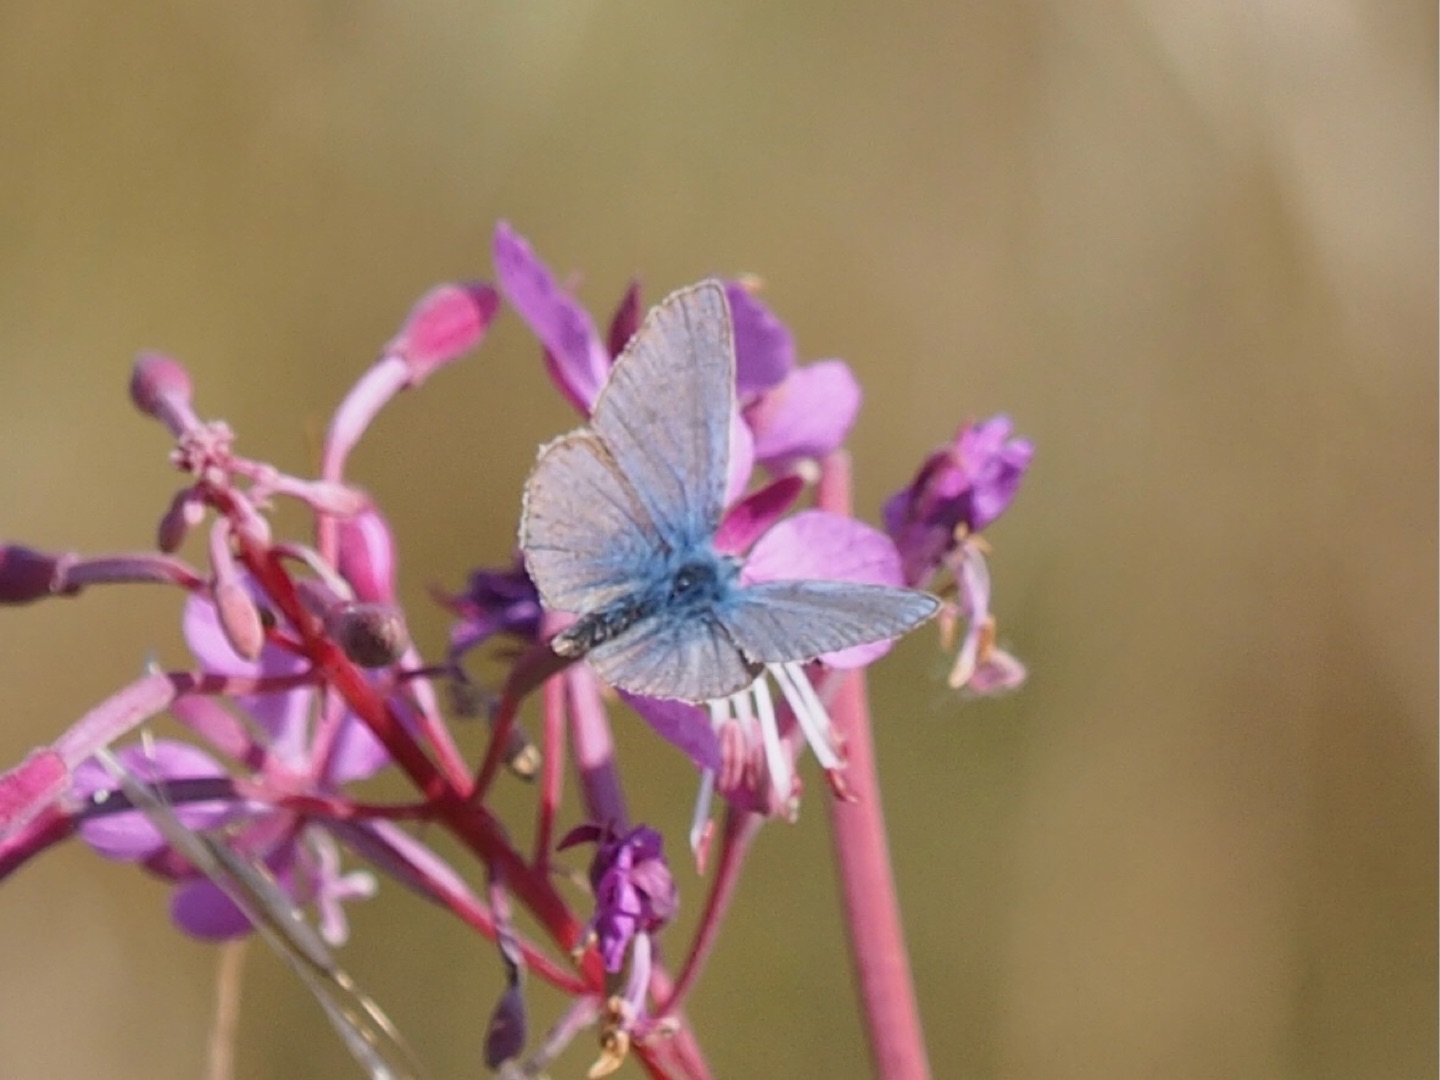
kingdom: Animalia
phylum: Arthropoda
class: Insecta
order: Lepidoptera
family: Lycaenidae
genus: Polyommatus
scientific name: Polyommatus icarus
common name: Almindelig blåfugl
